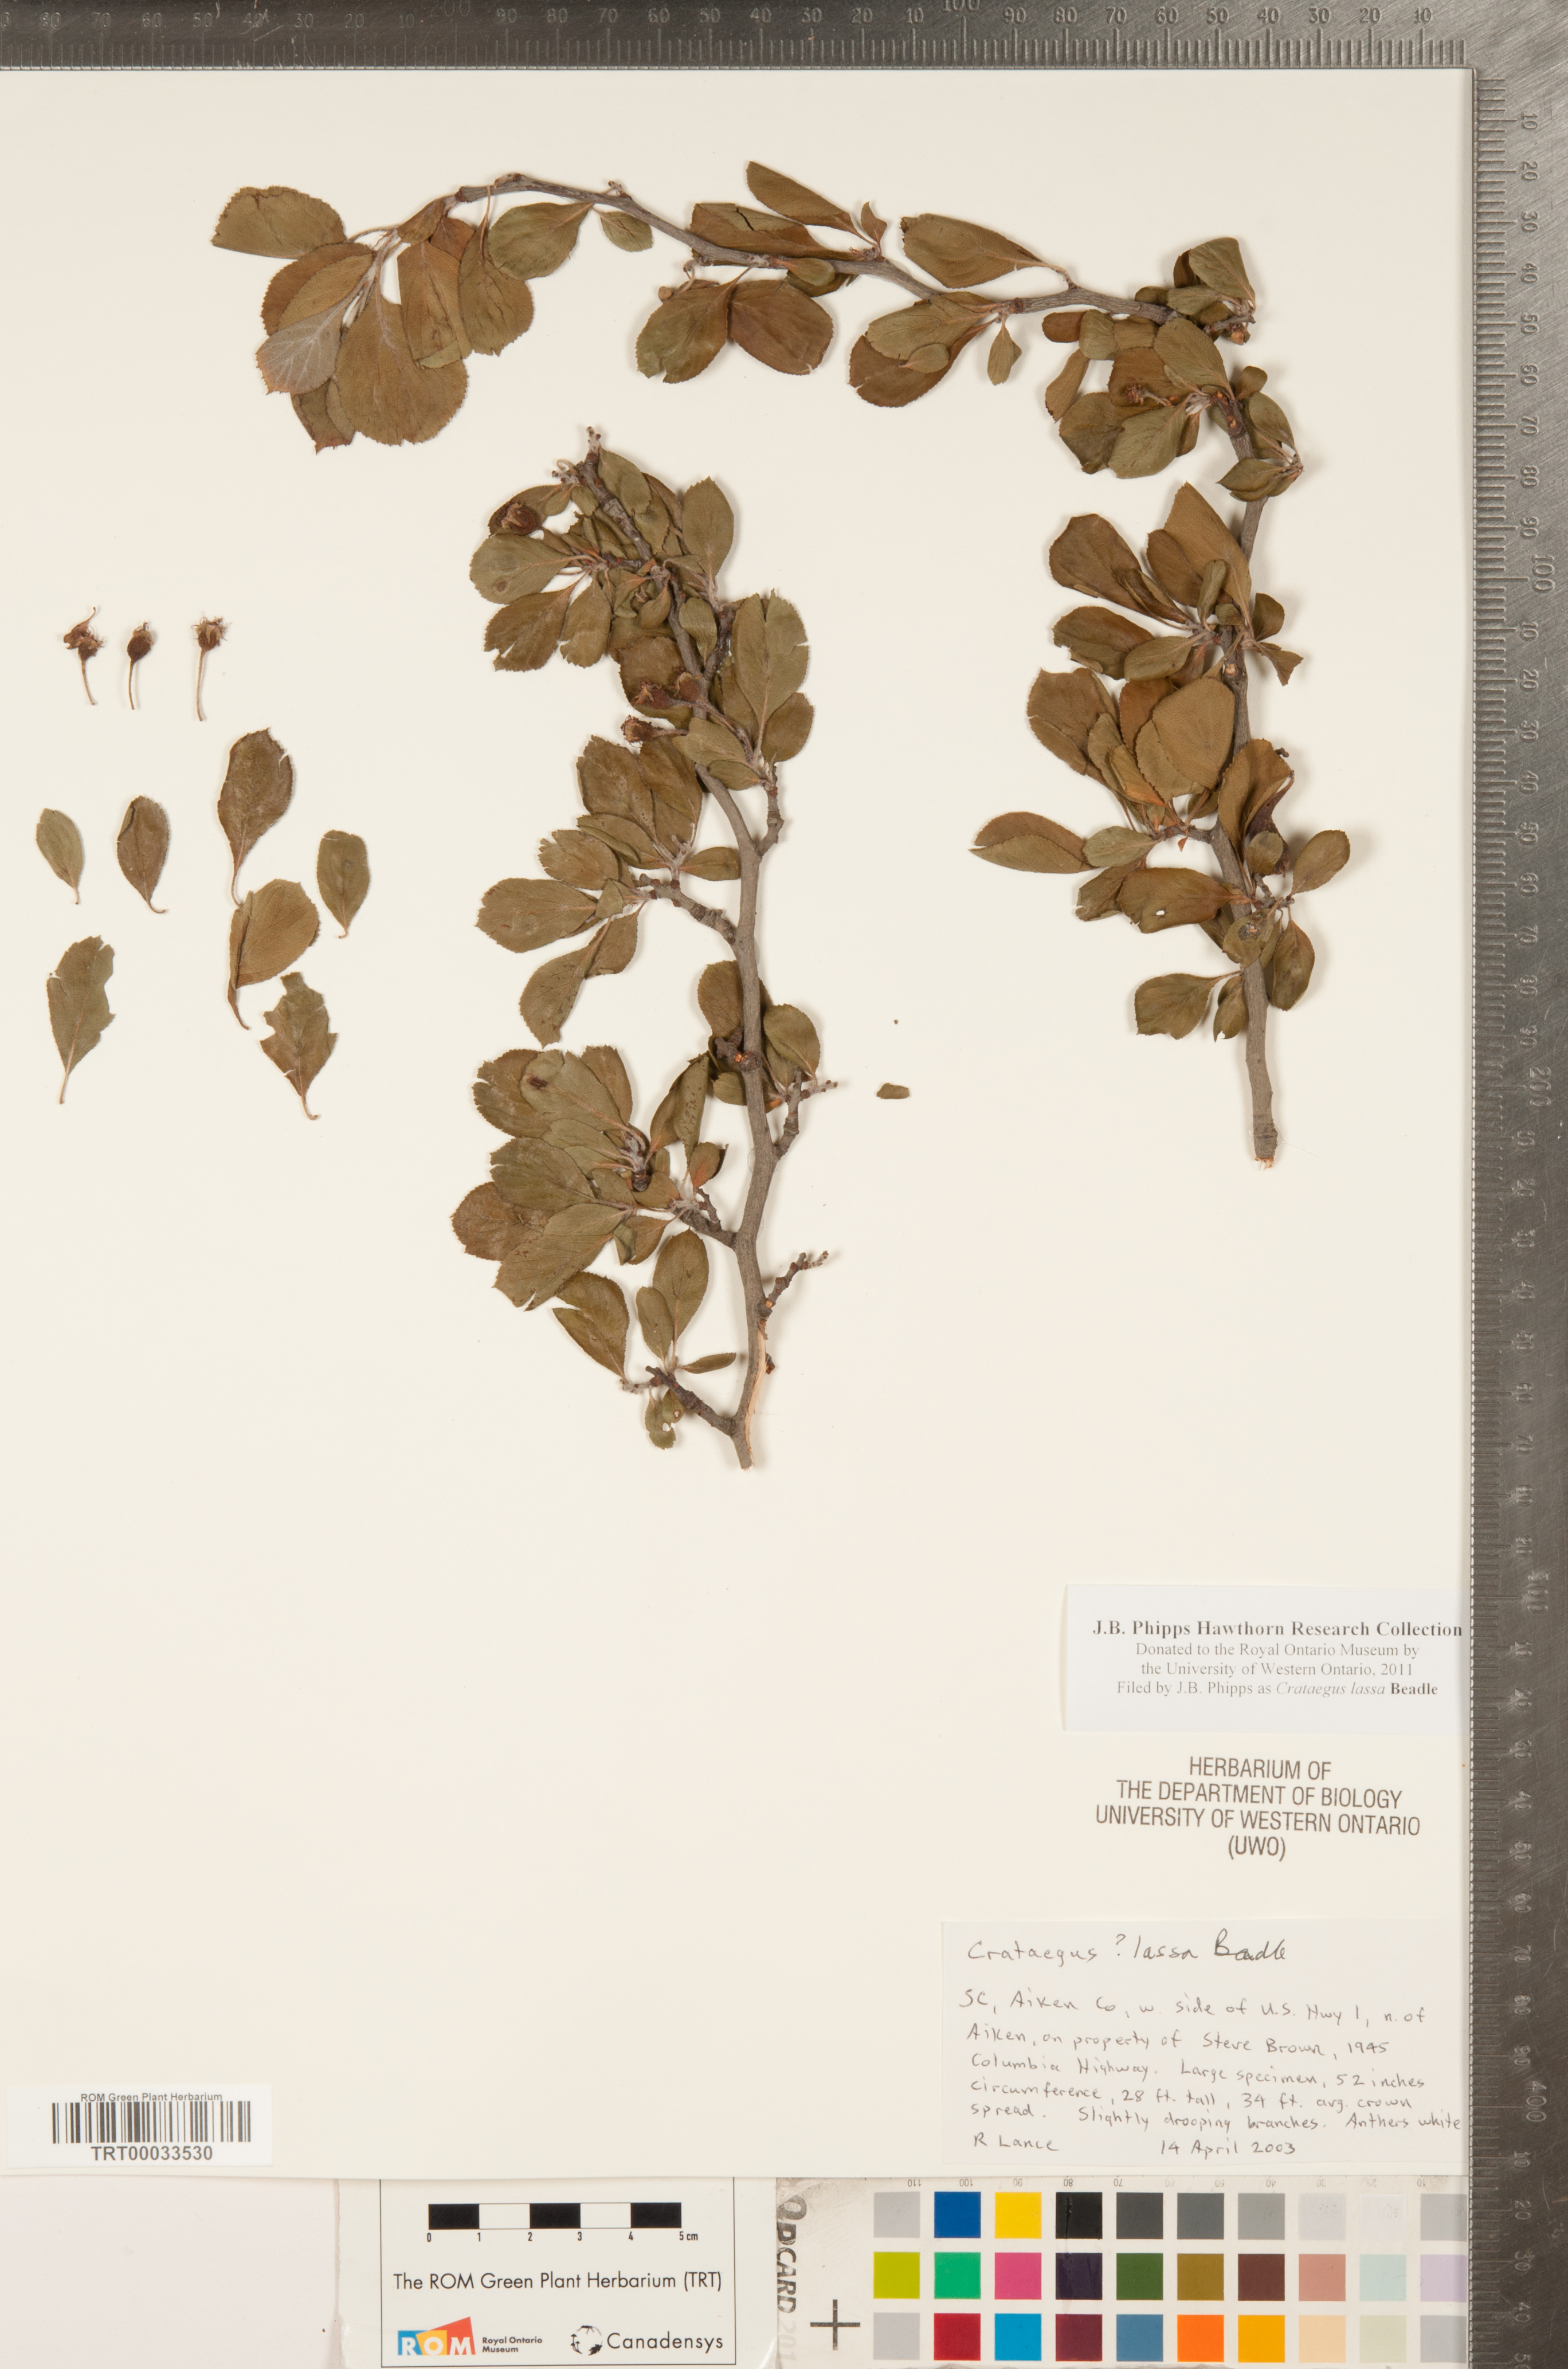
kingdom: Plantae
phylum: Tracheophyta
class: Magnoliopsida
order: Rosales
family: Rosaceae
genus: Crataegus
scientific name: Crataegus lassa
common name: Florida hawthorn
